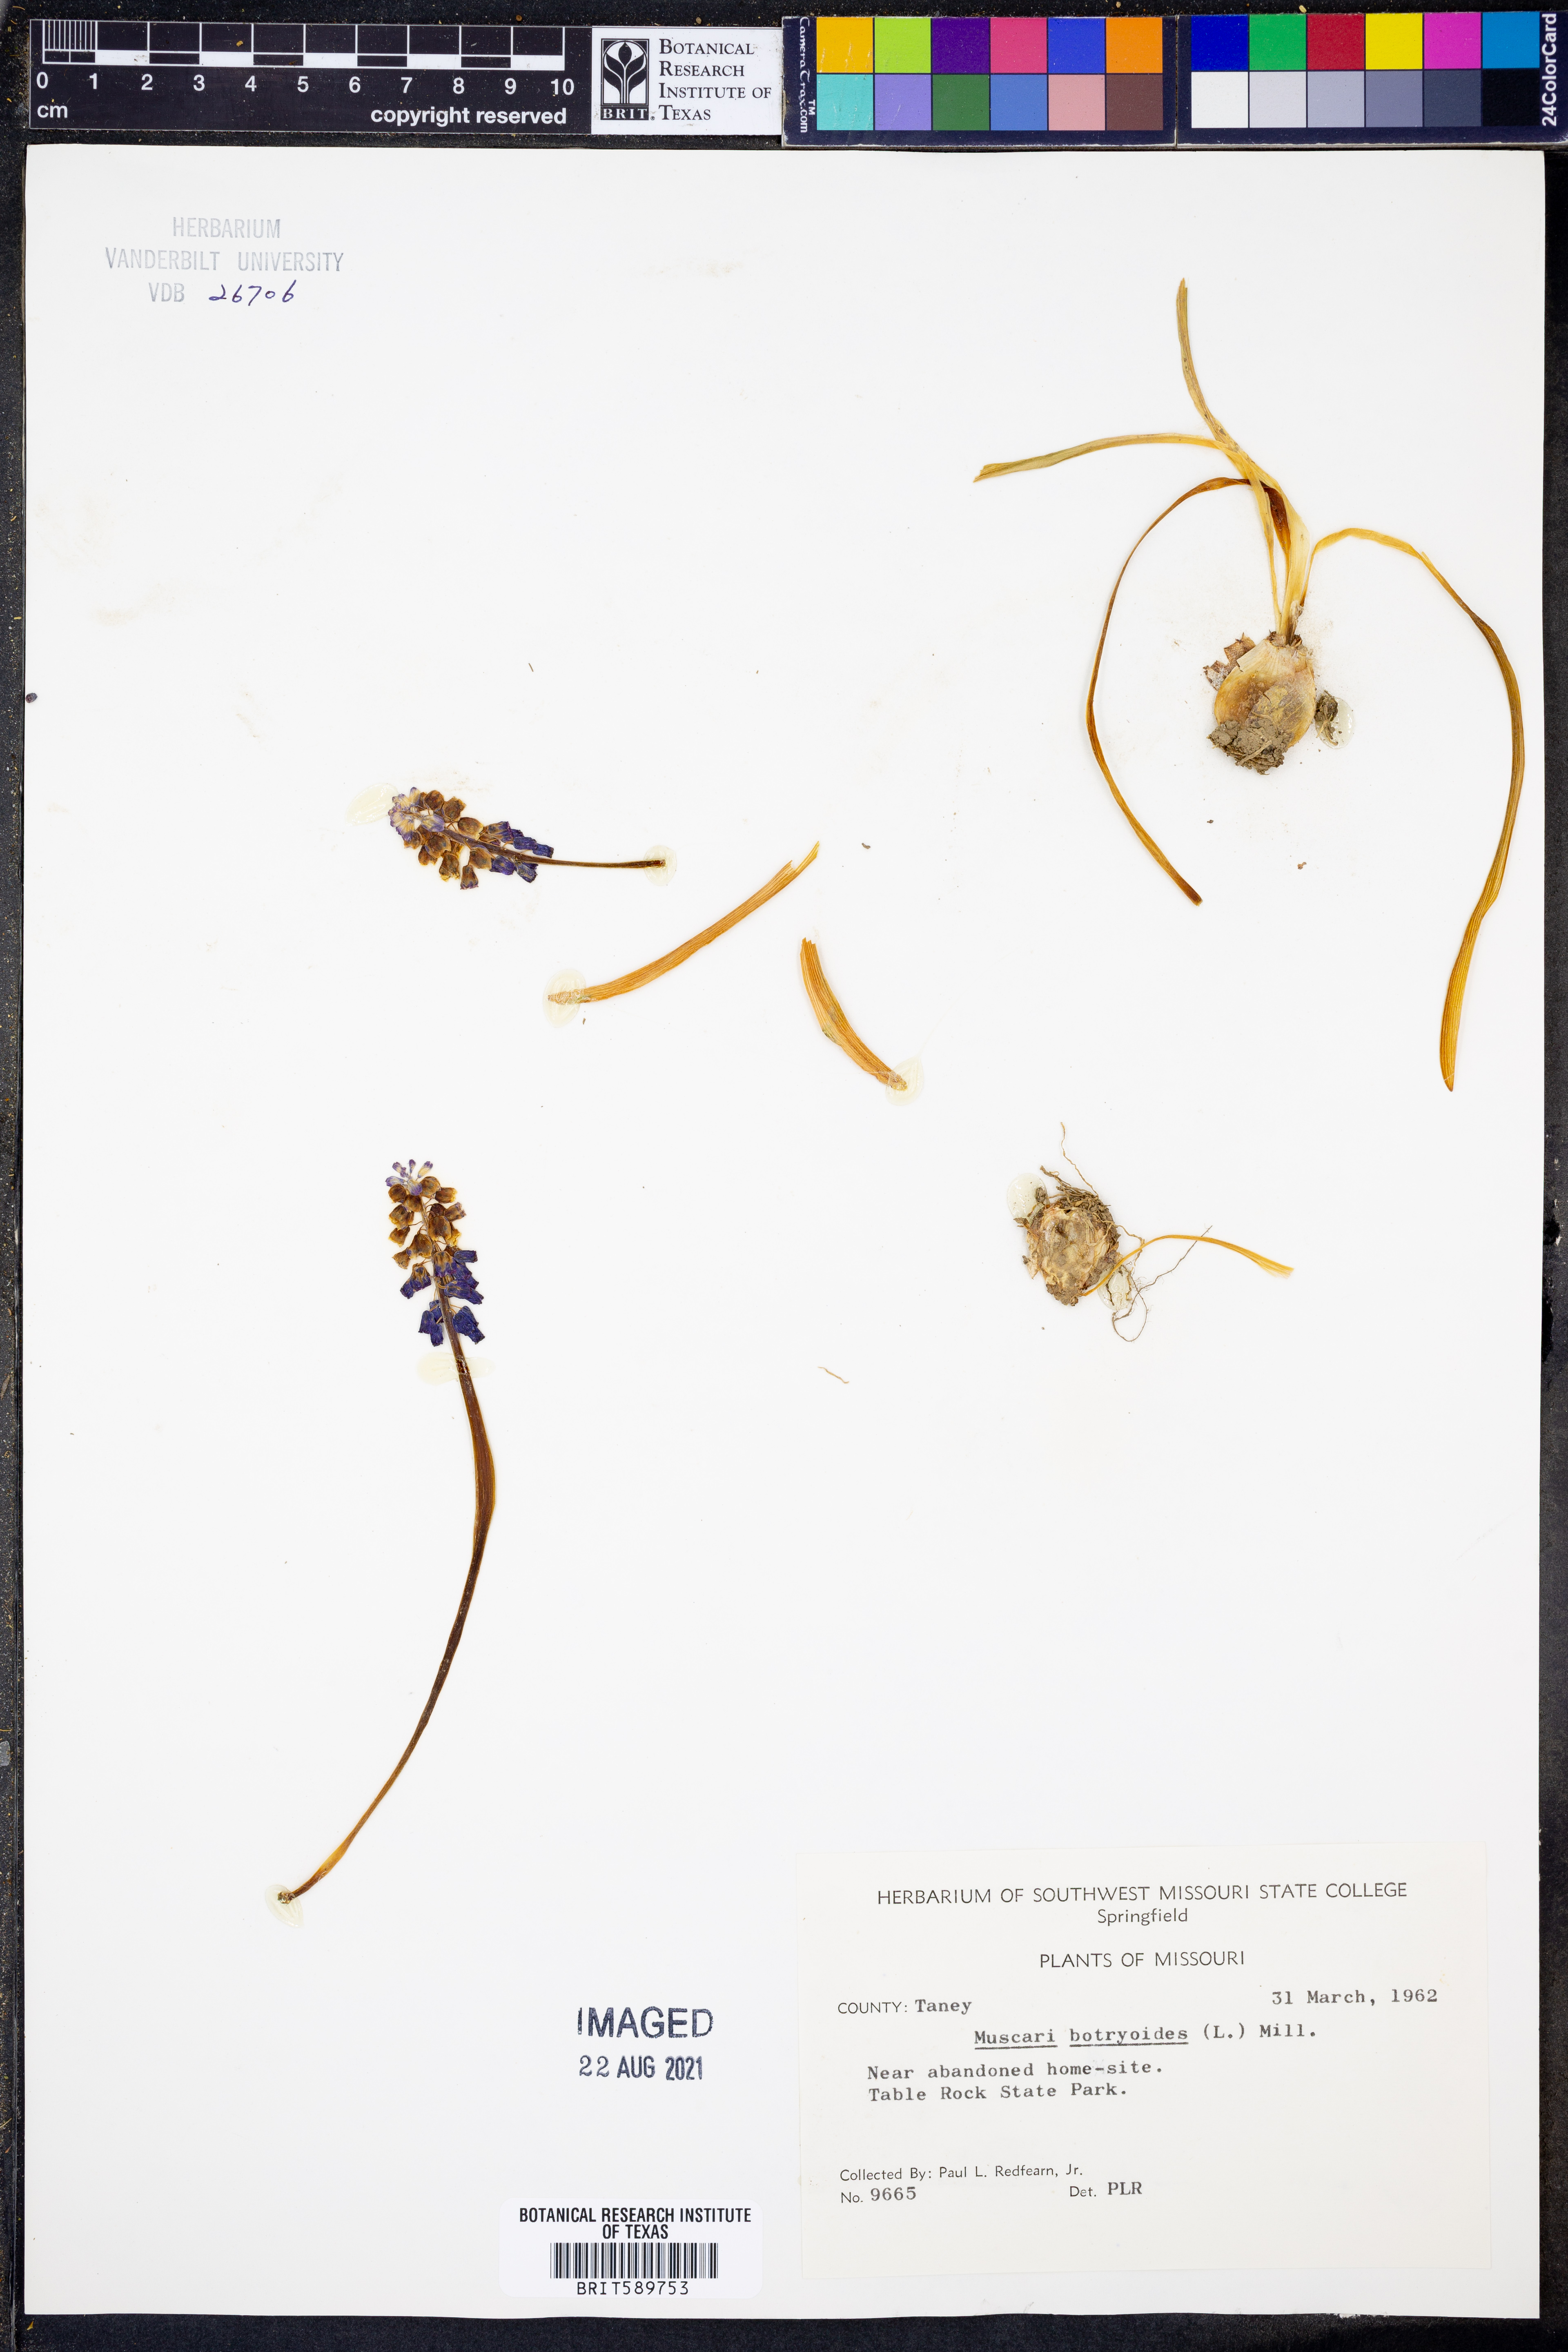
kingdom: Plantae
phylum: Tracheophyta
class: Liliopsida
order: Asparagales
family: Asparagaceae
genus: Muscari
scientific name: Muscari botryoides
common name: Compact grape-hyacinth
